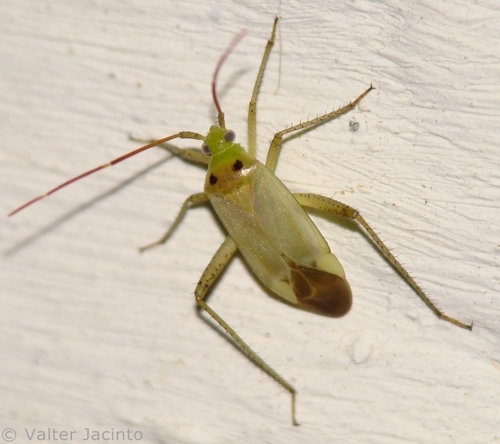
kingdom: Animalia
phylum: Arthropoda
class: Insecta
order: Hemiptera
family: Miridae
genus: Adelphocoris
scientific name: Adelphocoris lineolatus
